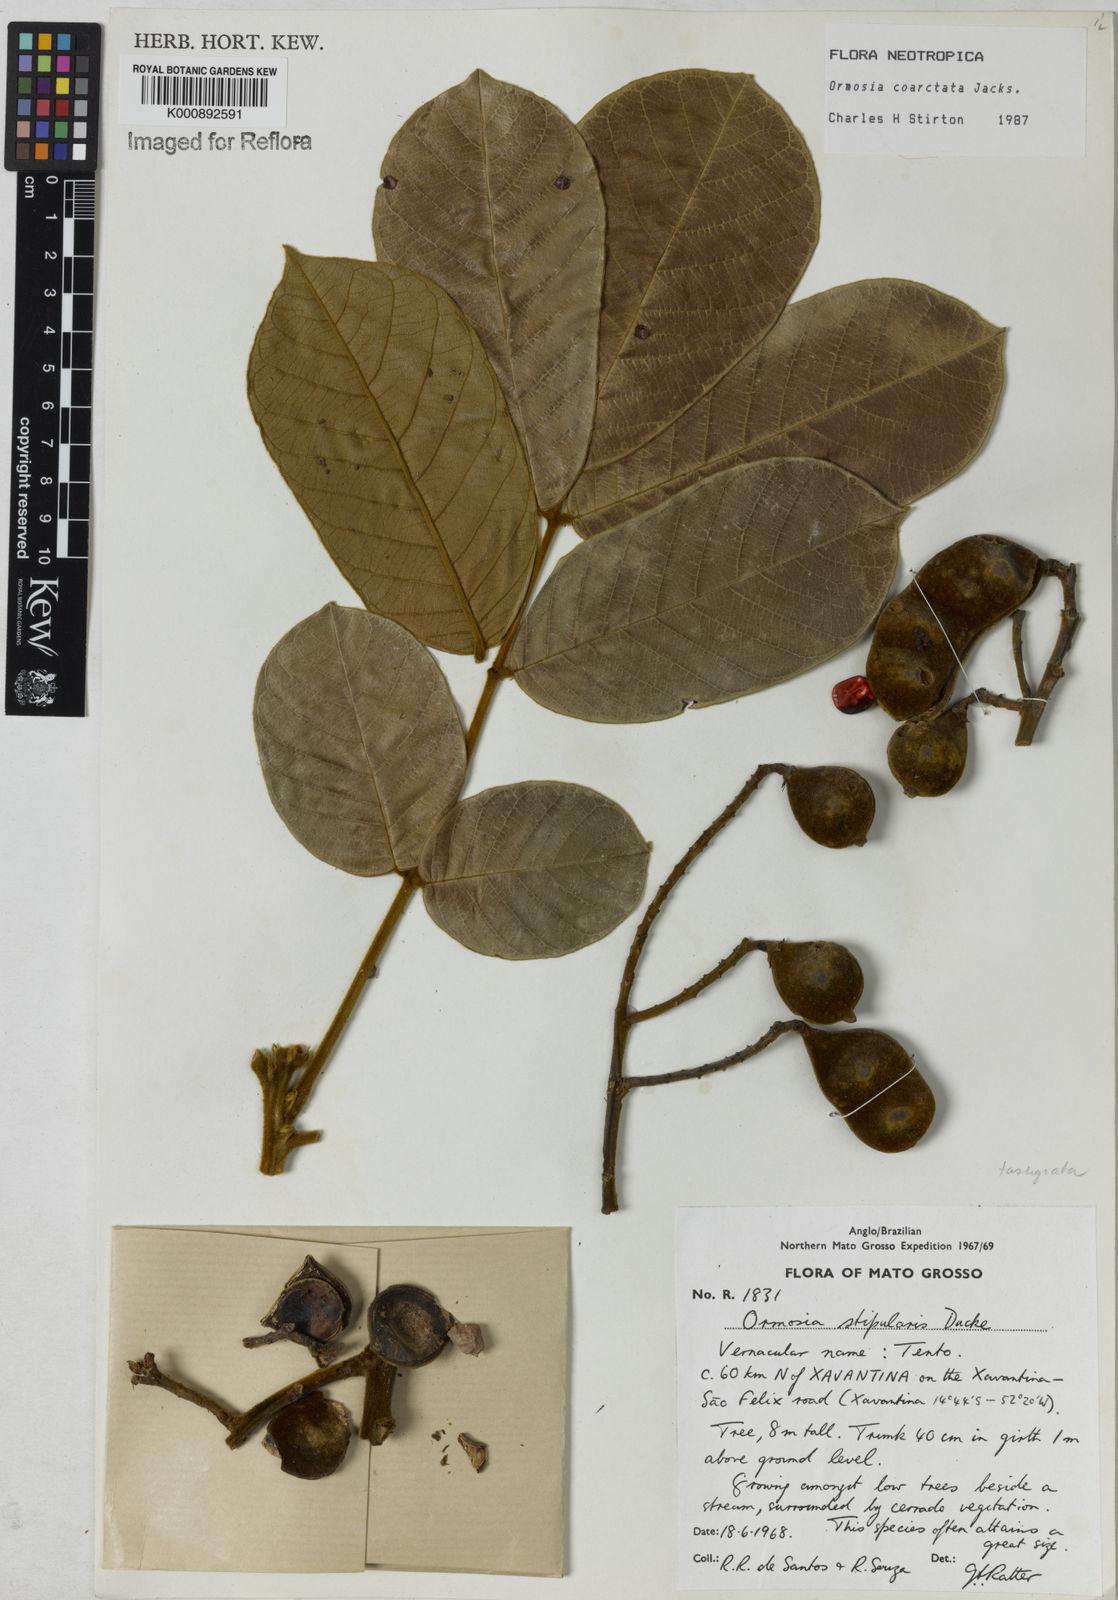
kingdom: Plantae
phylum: Tracheophyta
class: Magnoliopsida
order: Fabales
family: Fabaceae
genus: Ormosia
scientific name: Ormosia coarctata
